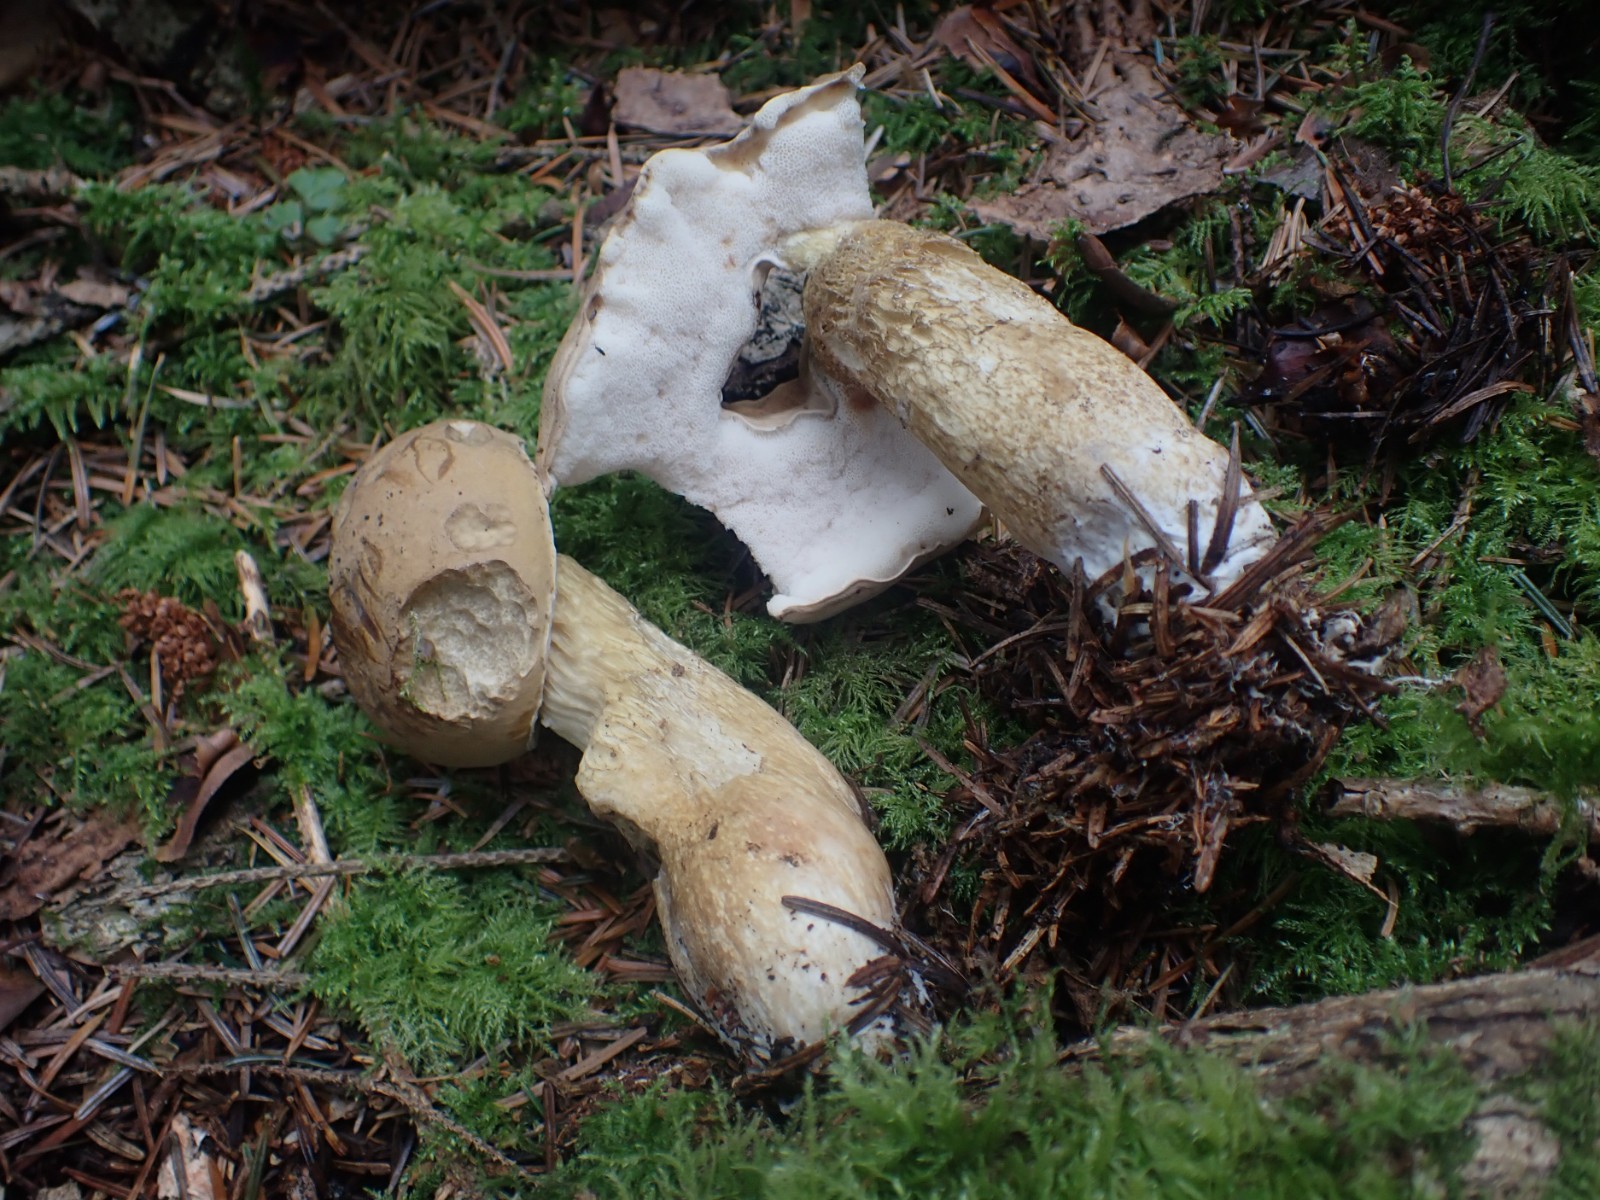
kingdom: Fungi
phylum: Basidiomycota
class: Agaricomycetes
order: Boletales
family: Boletaceae
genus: Tylopilus
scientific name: Tylopilus felleus
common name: galderørhat
